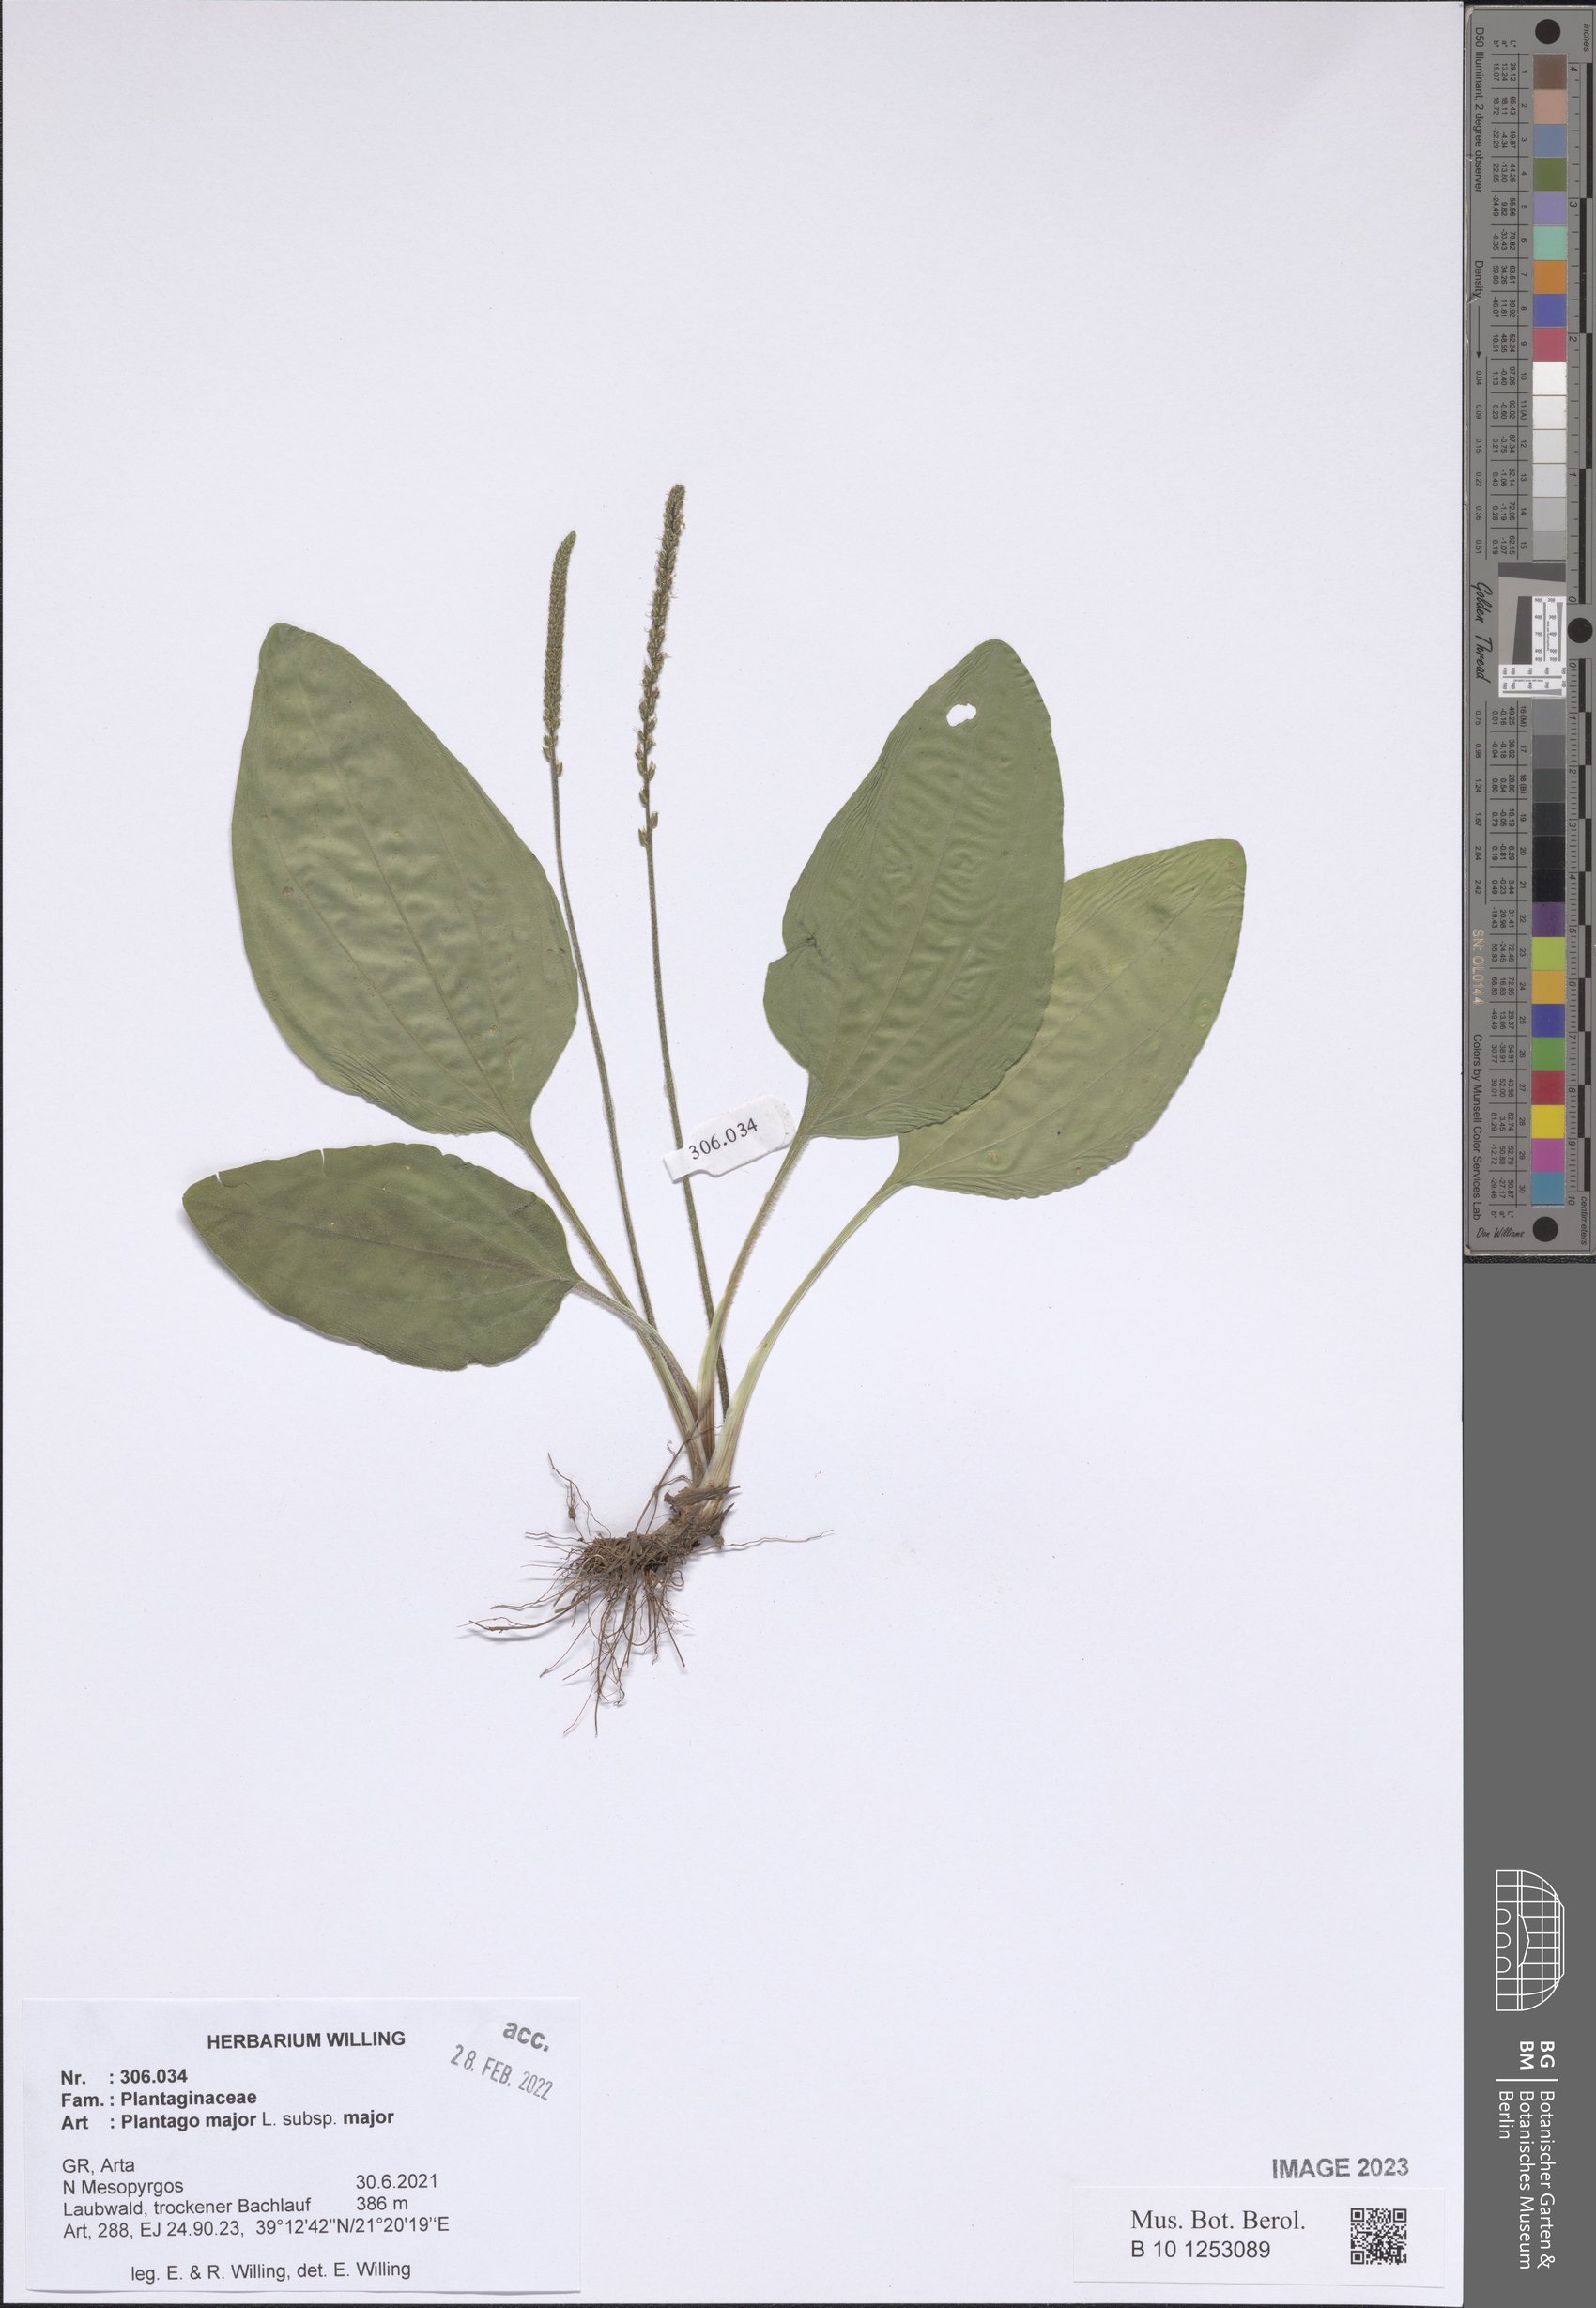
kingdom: Plantae
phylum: Tracheophyta
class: Magnoliopsida
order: Lamiales
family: Plantaginaceae
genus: Plantago
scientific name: Plantago major
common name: Common plantain
